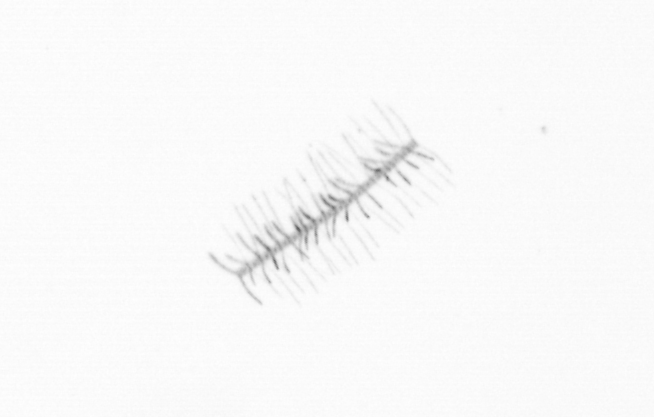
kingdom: Chromista
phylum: Ochrophyta
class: Bacillariophyceae
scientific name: Bacillariophyceae
